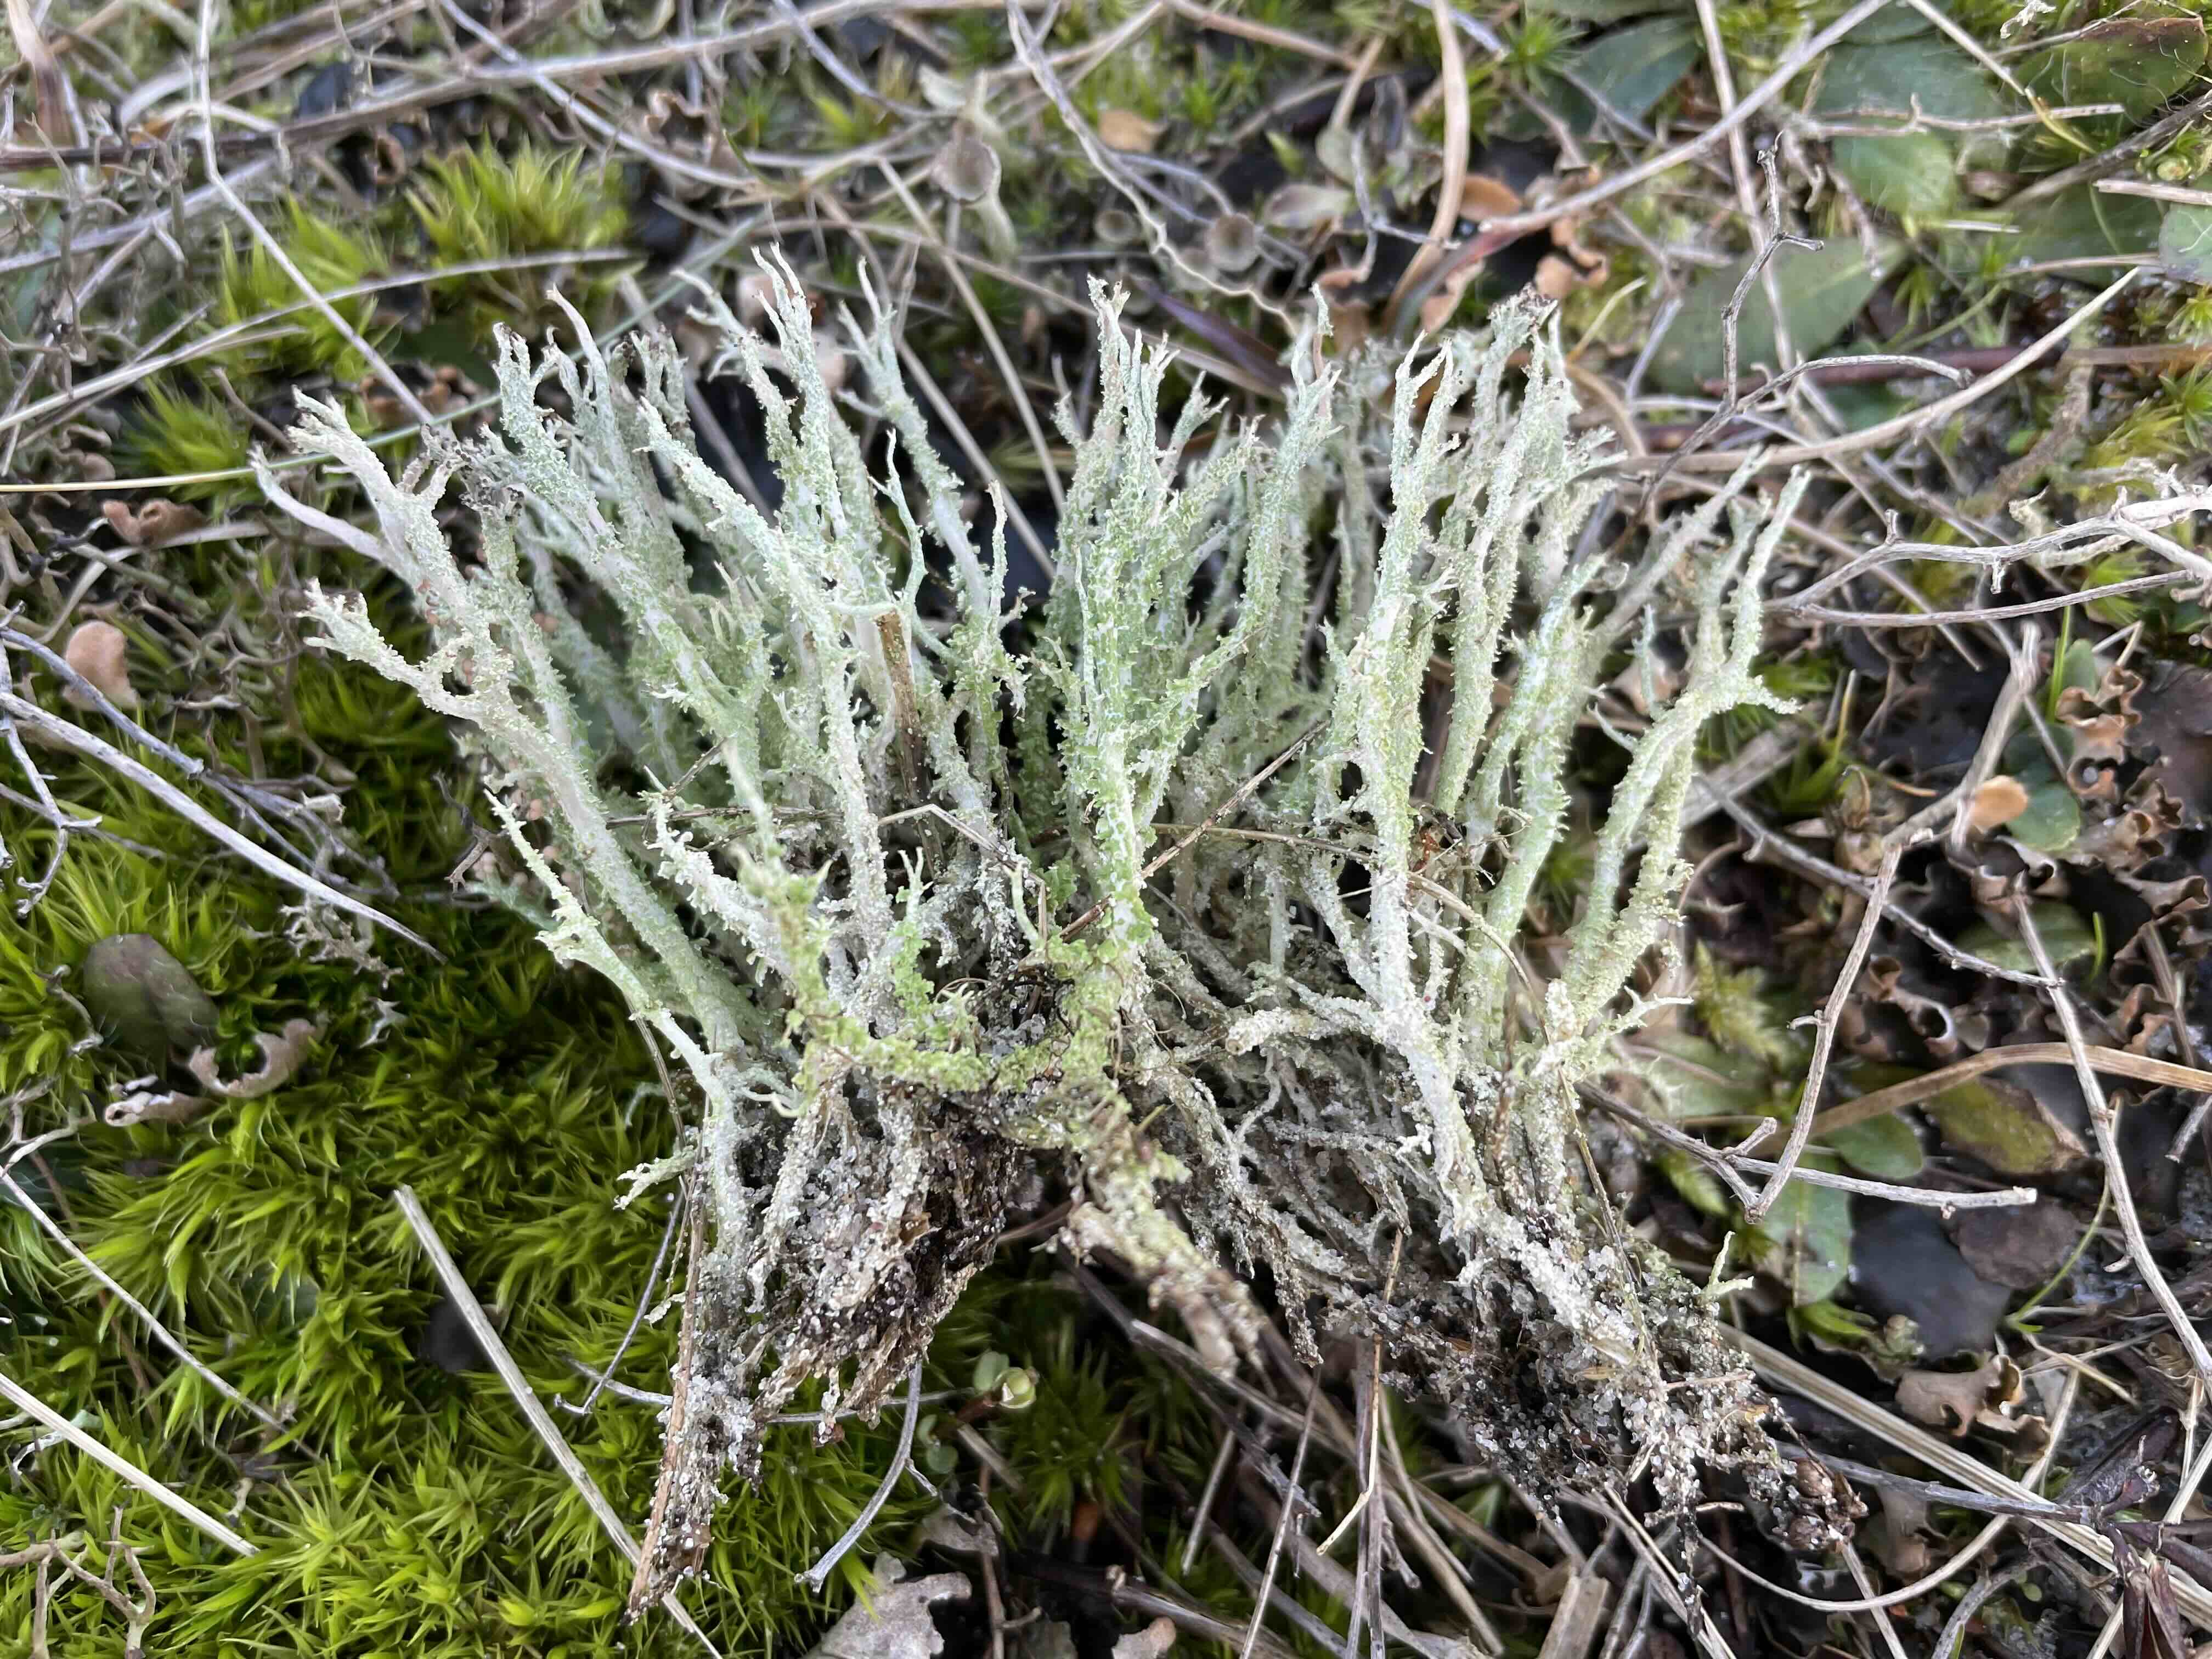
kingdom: Fungi
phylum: Ascomycota
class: Lecanoromycetes
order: Lecanorales
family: Cladoniaceae
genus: Cladonia
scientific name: Cladonia scabriuscula
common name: ru bægerlav
